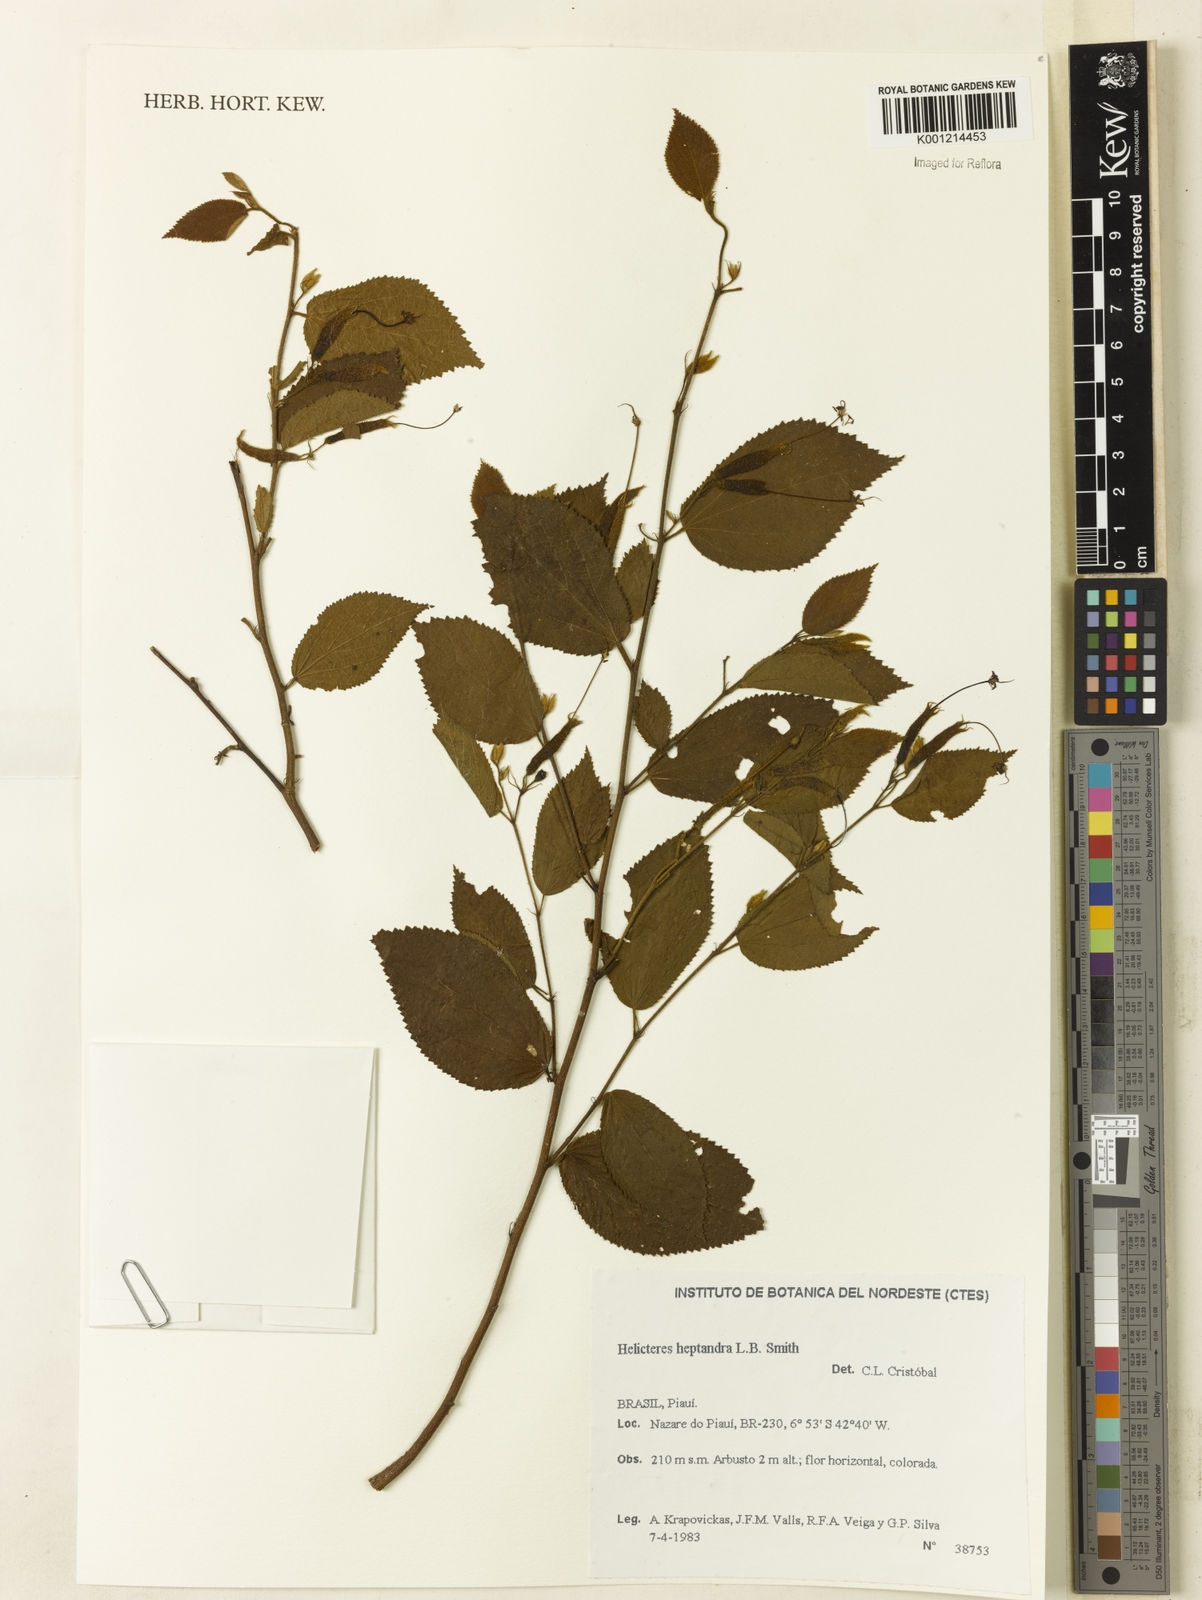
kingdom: Plantae
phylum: Tracheophyta
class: Magnoliopsida
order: Malvales
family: Malvaceae
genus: Helicteres
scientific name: Helicteres heptandra
